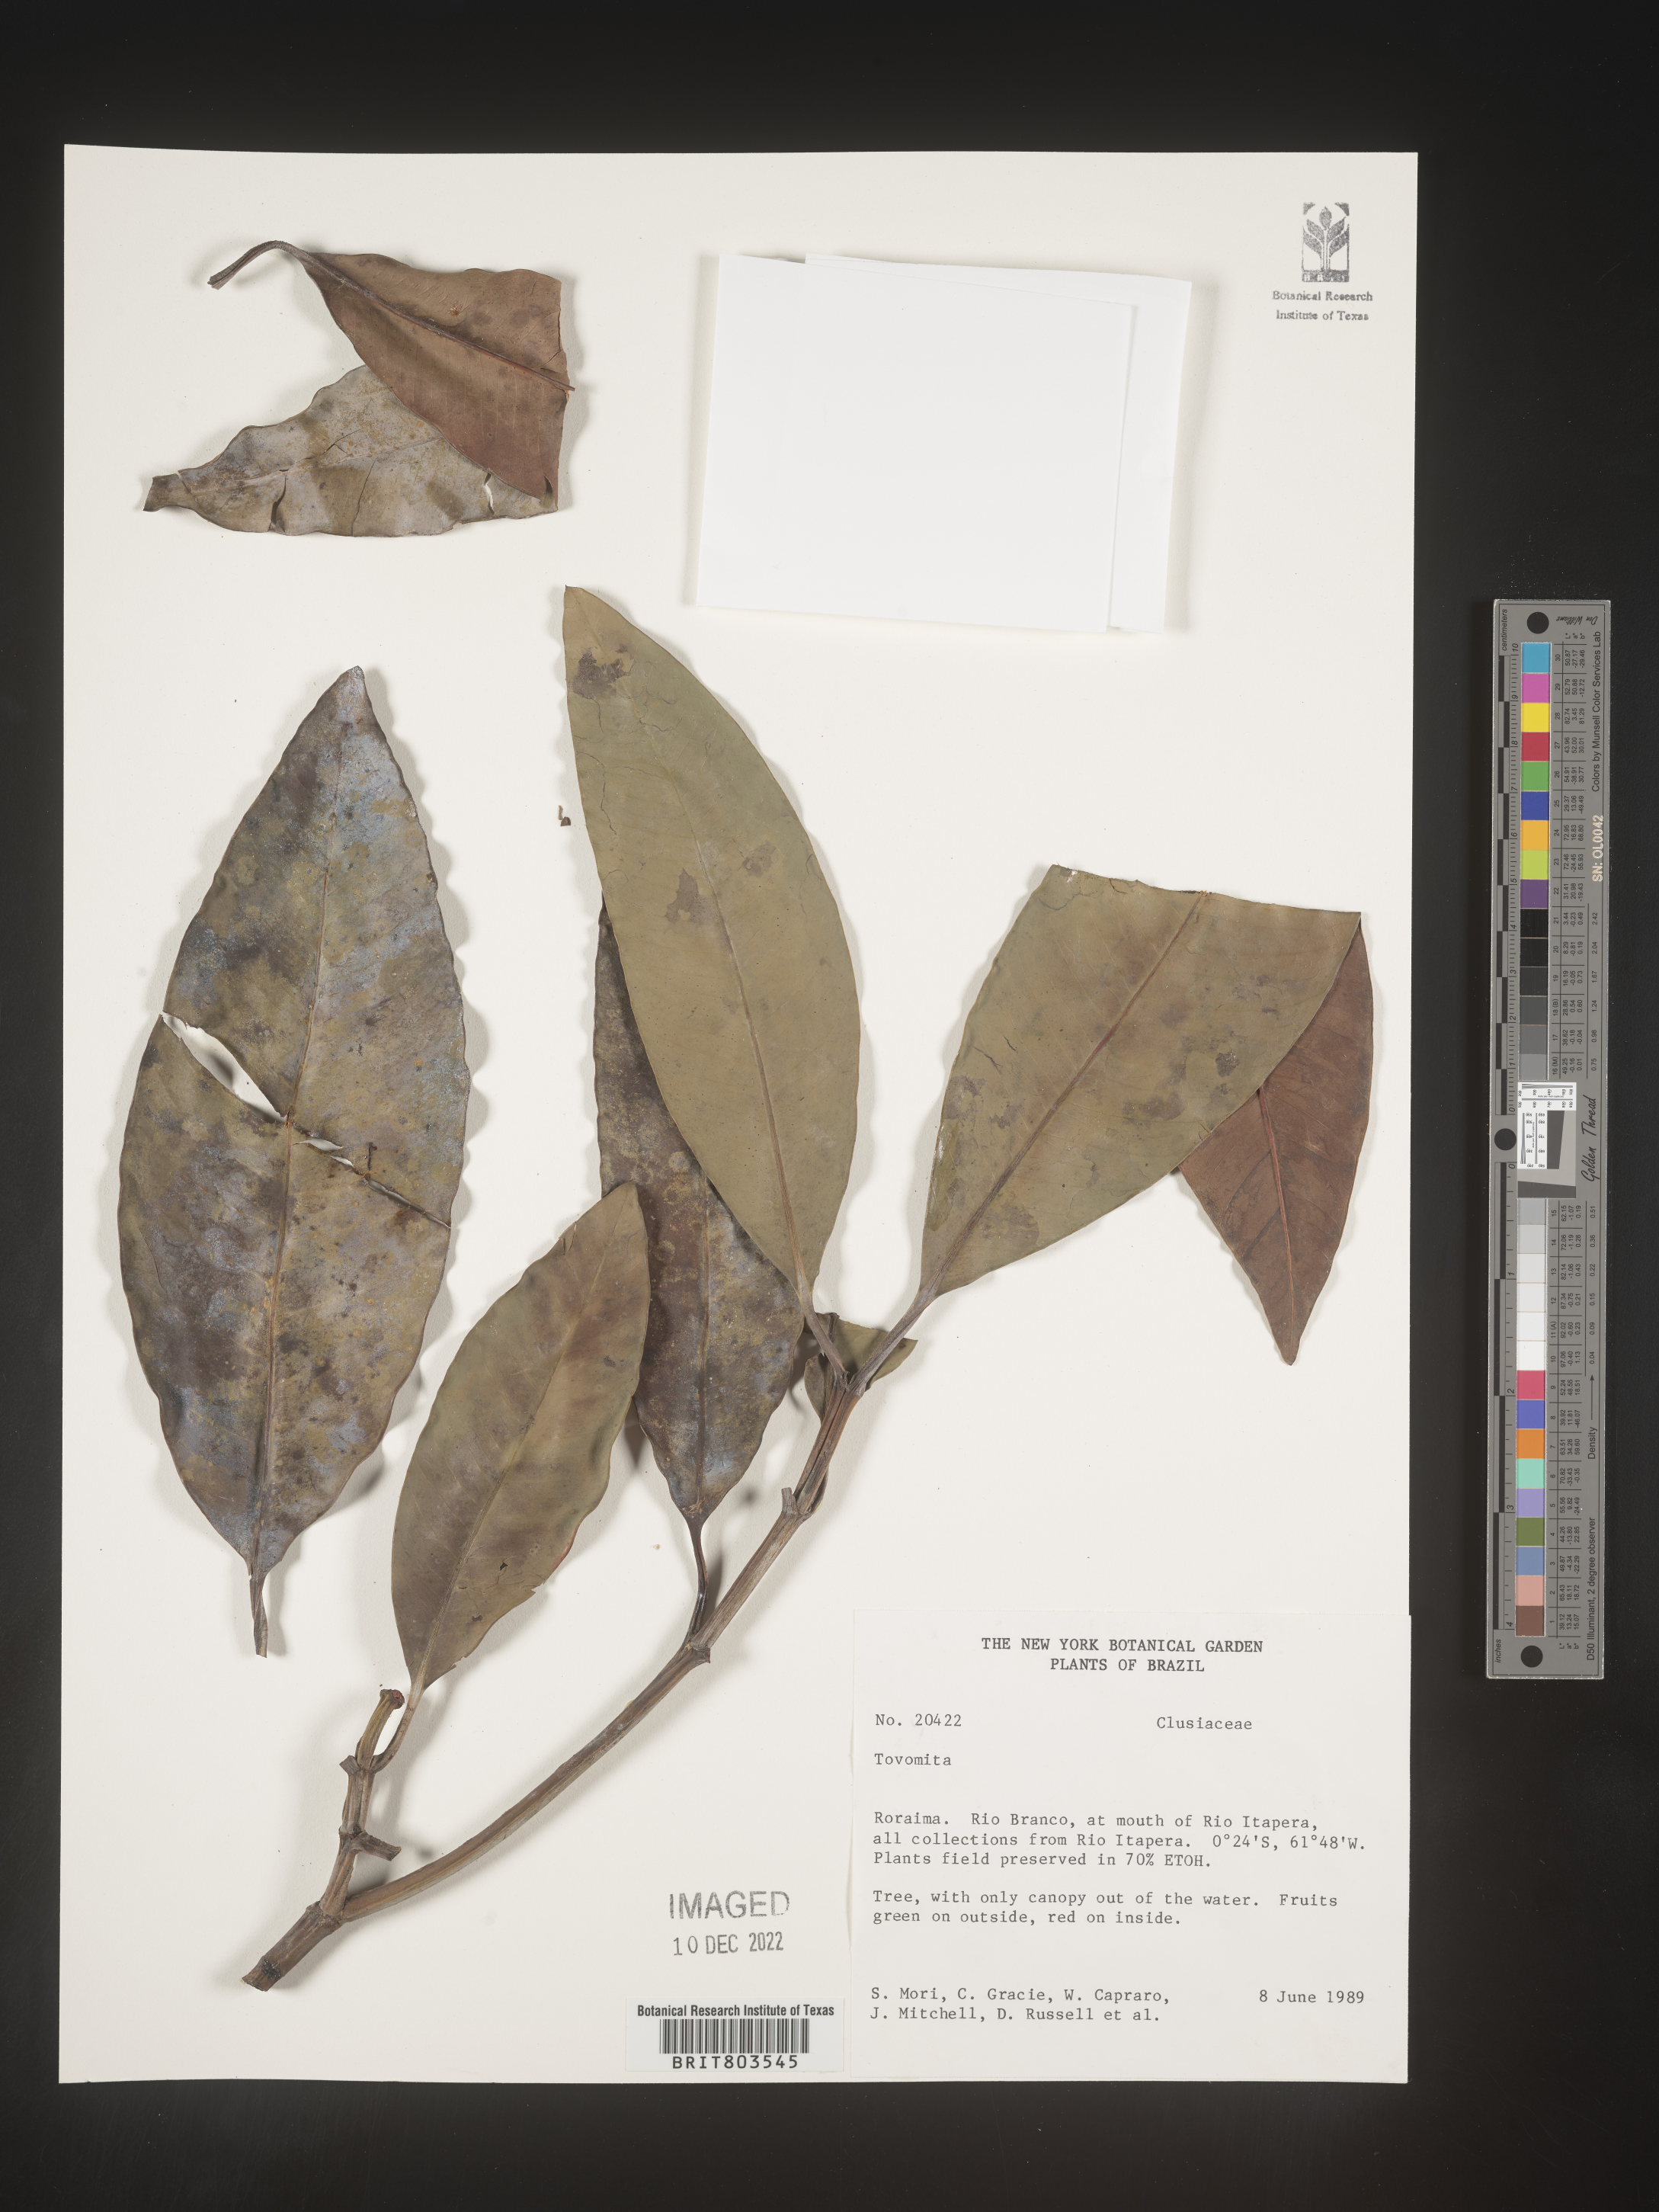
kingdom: Plantae
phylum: Tracheophyta
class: Magnoliopsida
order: Malpighiales
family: Clusiaceae
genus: Tovomita
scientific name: Tovomita
